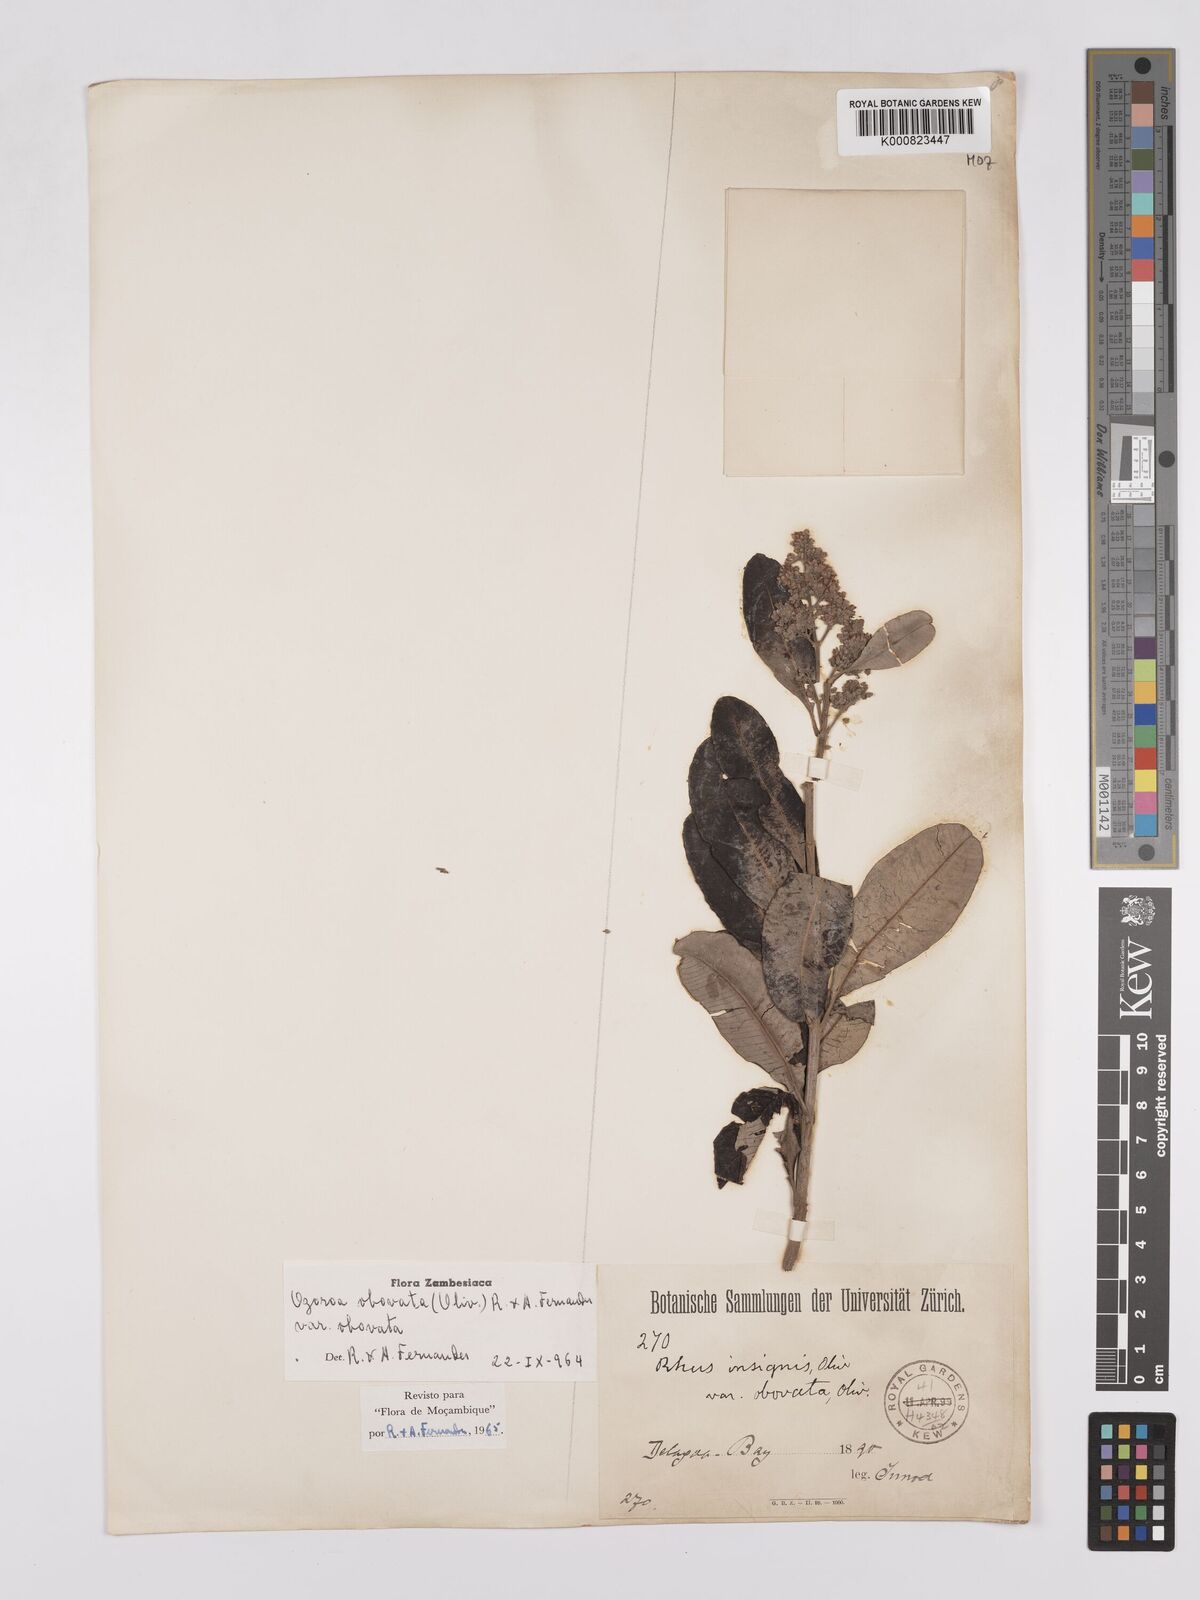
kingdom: Plantae
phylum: Tracheophyta
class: Magnoliopsida
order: Sapindales
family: Anacardiaceae
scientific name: Anacardiaceae
